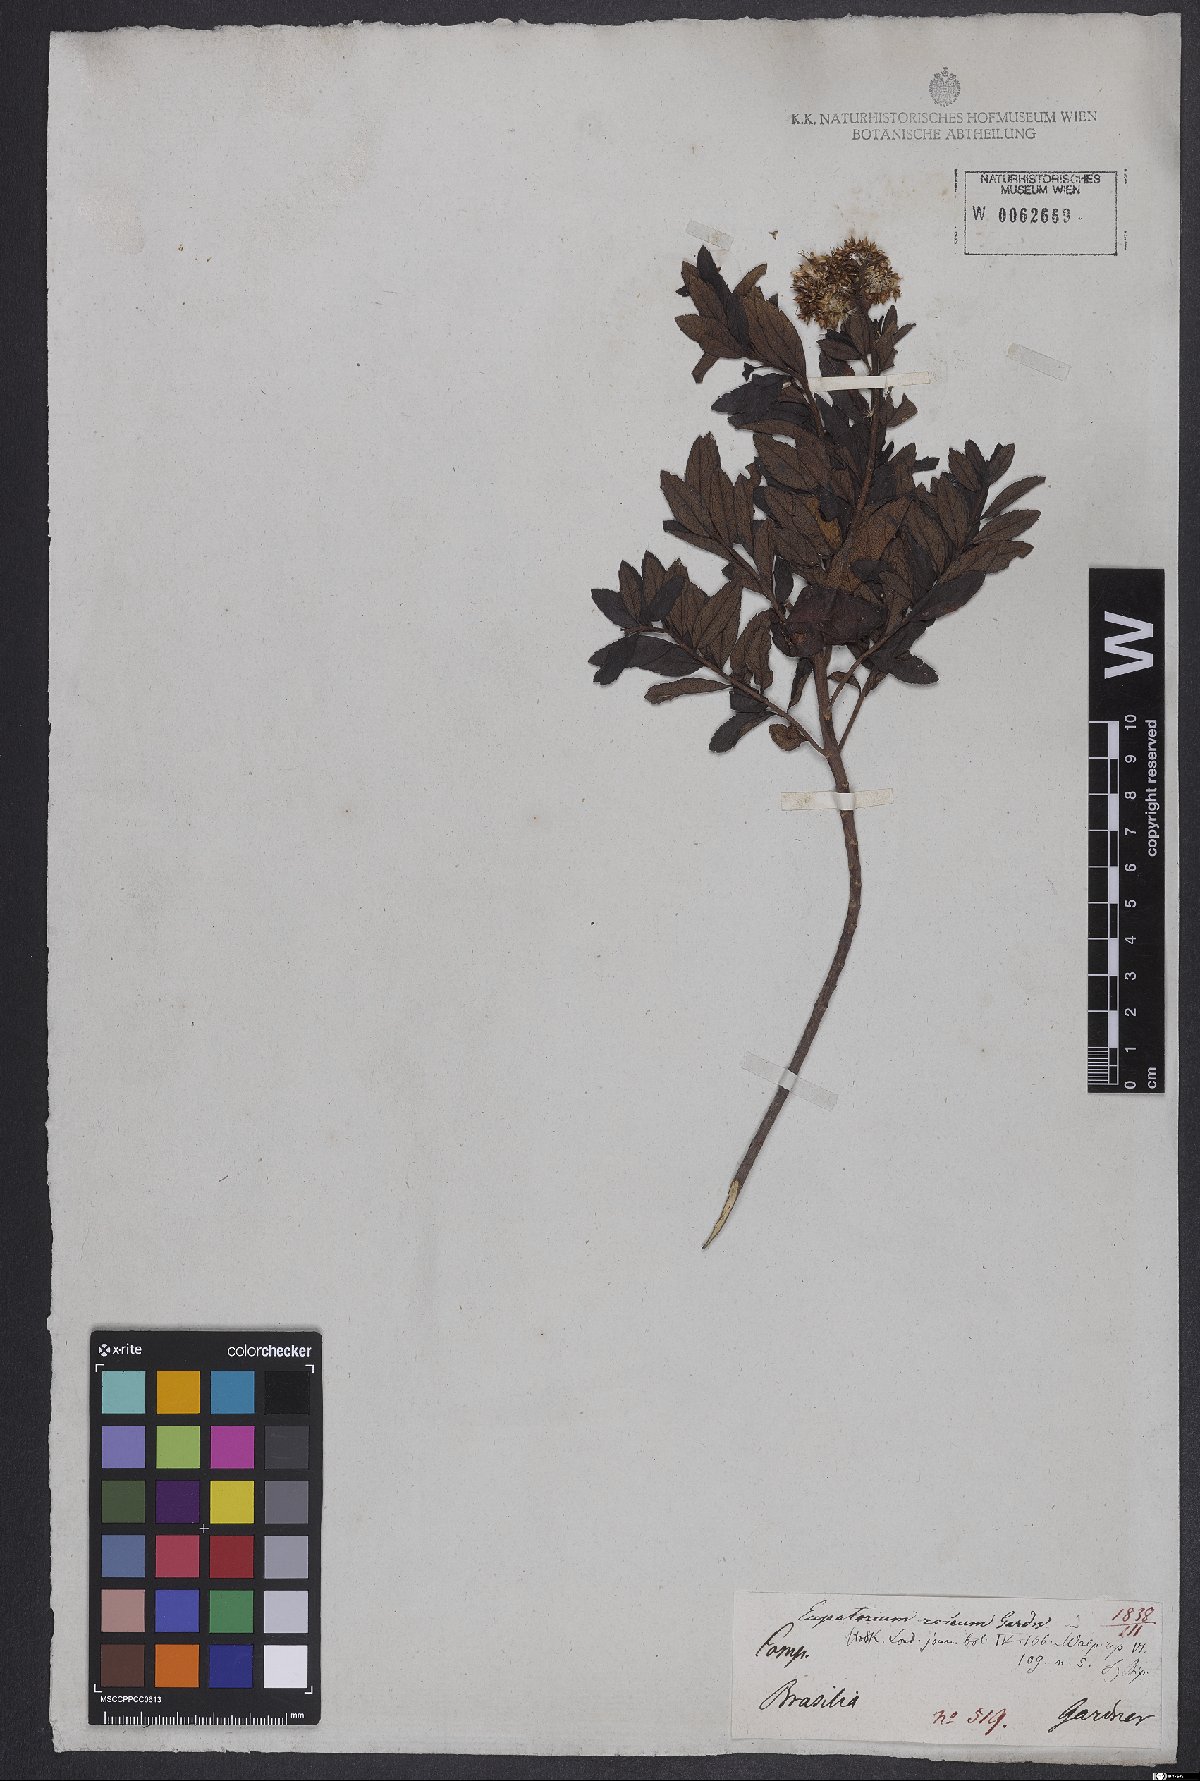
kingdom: Plantae
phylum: Tracheophyta
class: Magnoliopsida
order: Asterales
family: Asteraceae
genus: Austrocritonia
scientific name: Austrocritonia rosea
